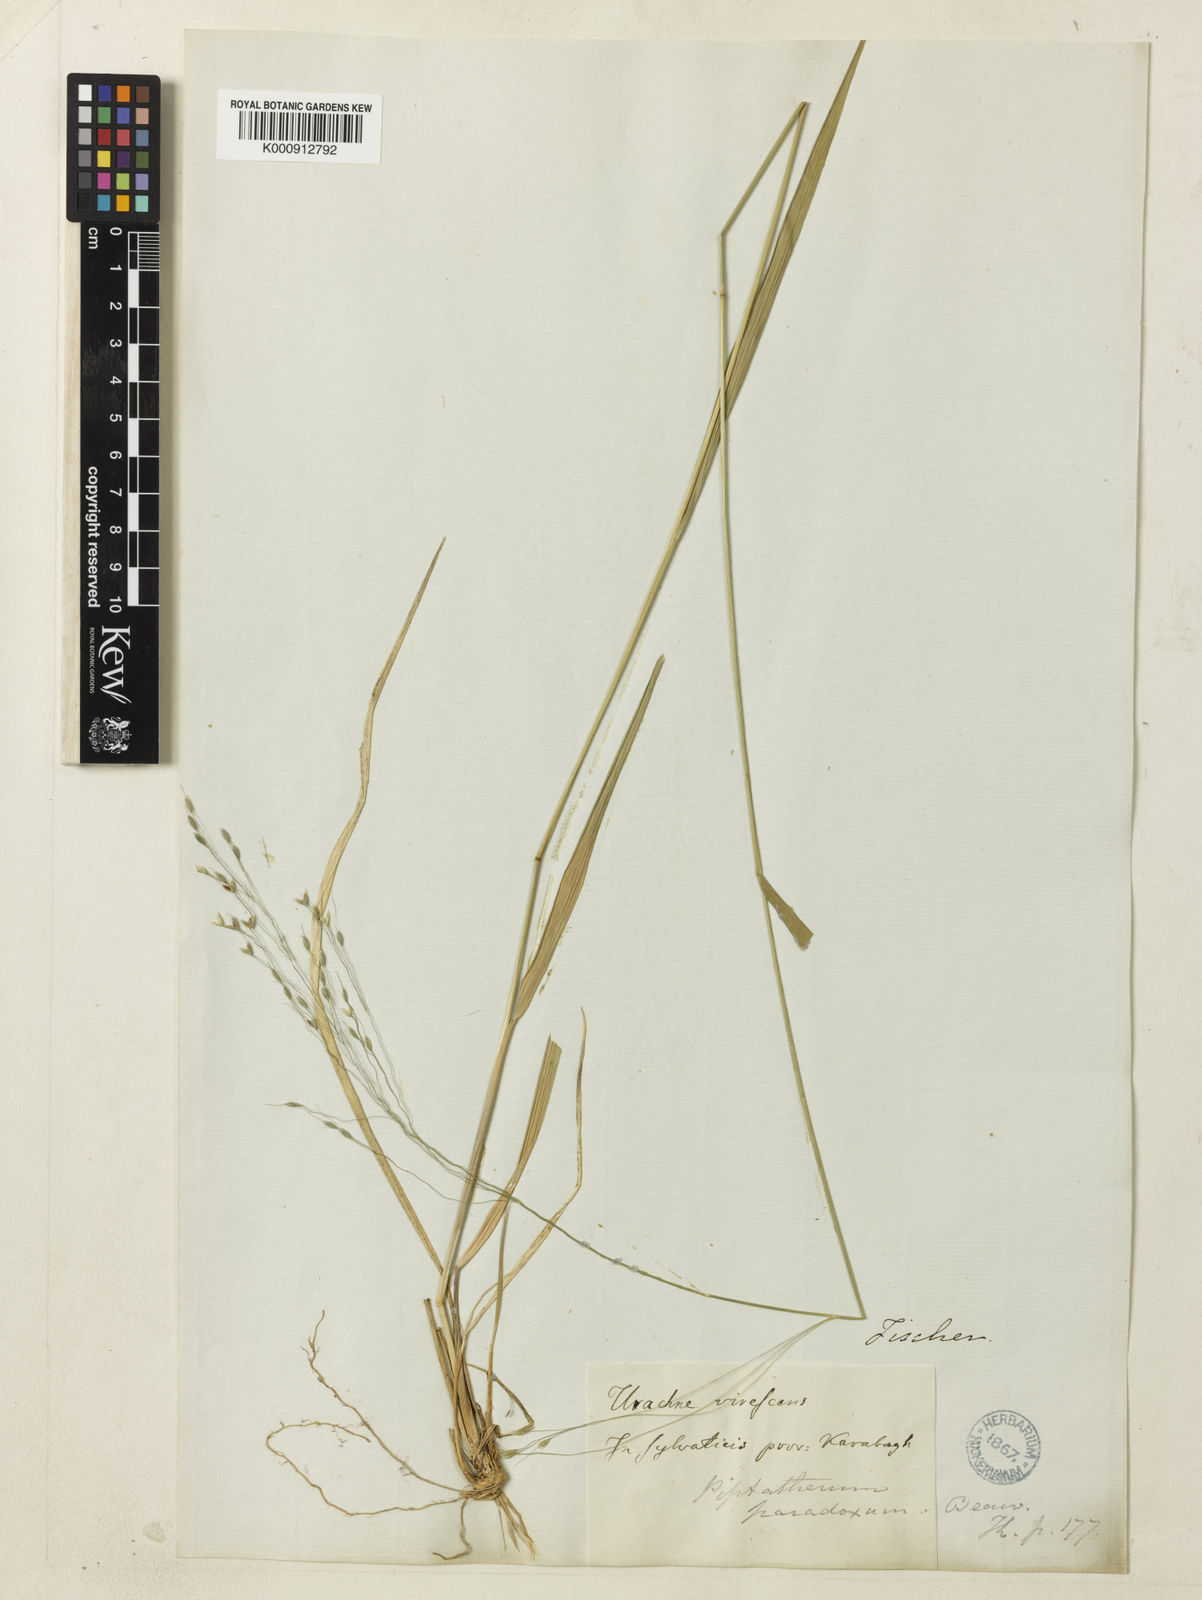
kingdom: Plantae
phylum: Tracheophyta
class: Liliopsida
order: Poales
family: Poaceae
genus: Achnatherum
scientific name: Achnatherum virescens
